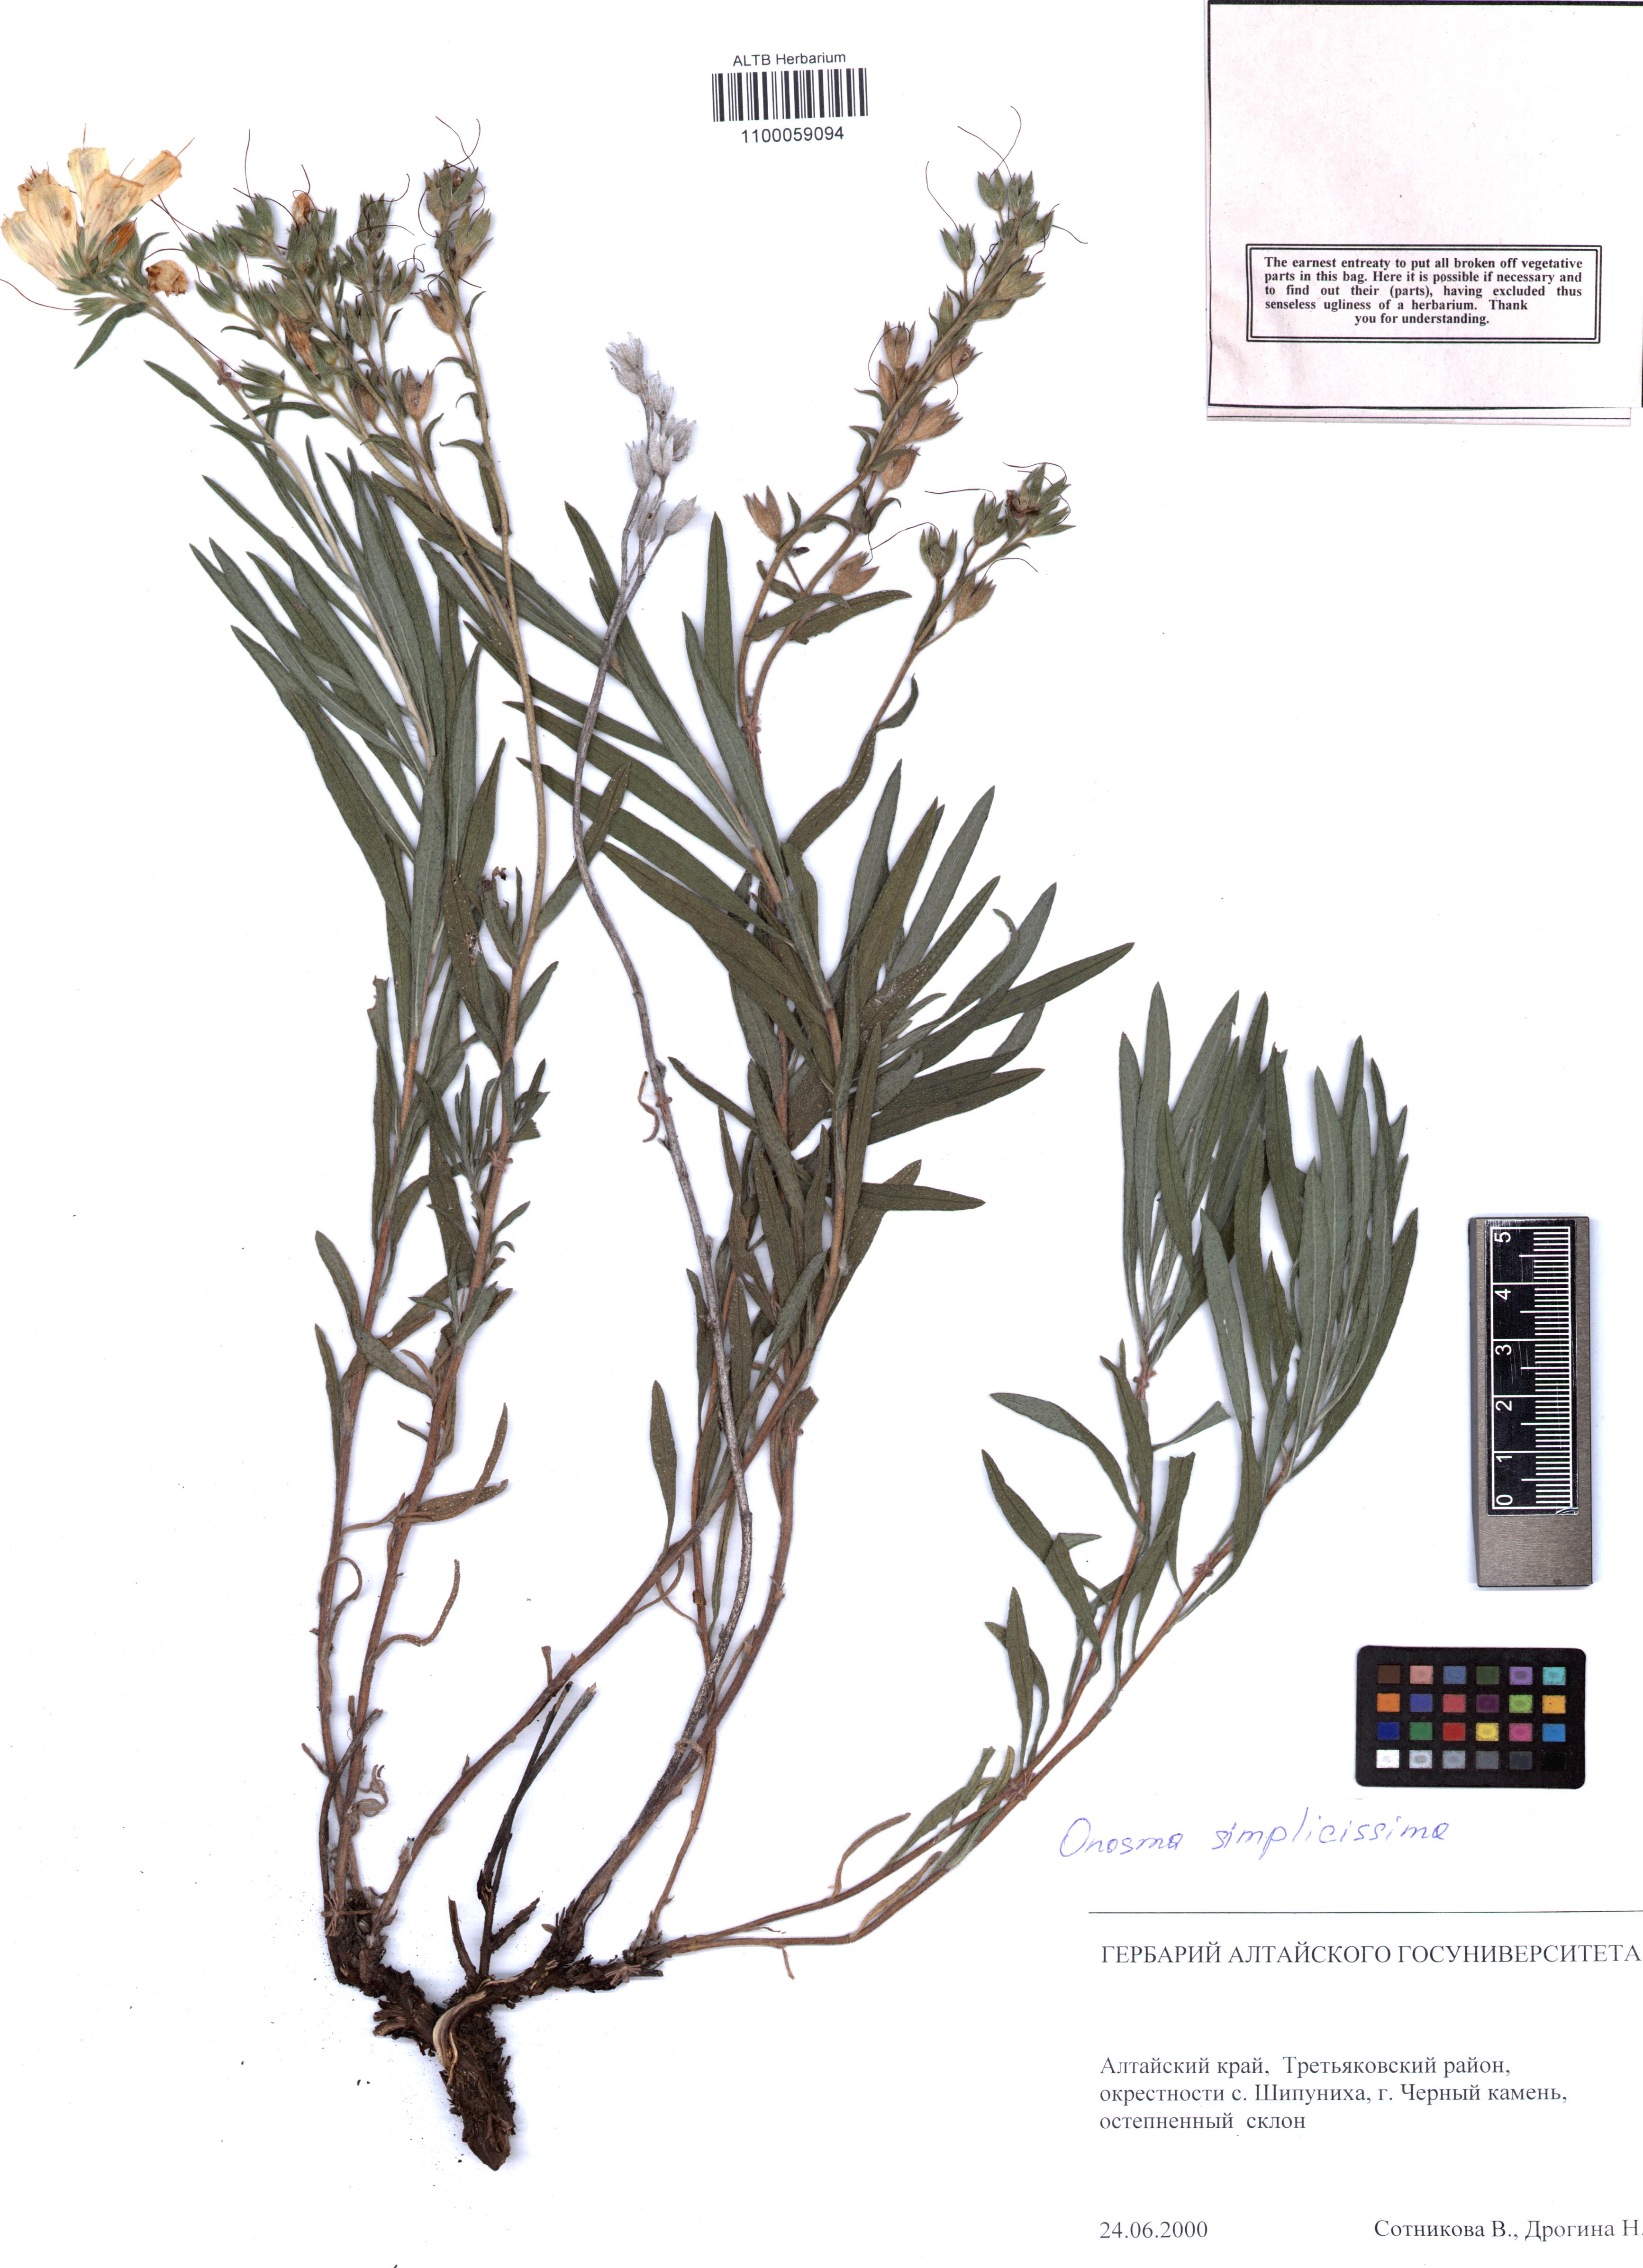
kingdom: Plantae
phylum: Tracheophyta
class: Magnoliopsida
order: Boraginales
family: Boraginaceae
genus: Onosma
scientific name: Onosma simplicissima
